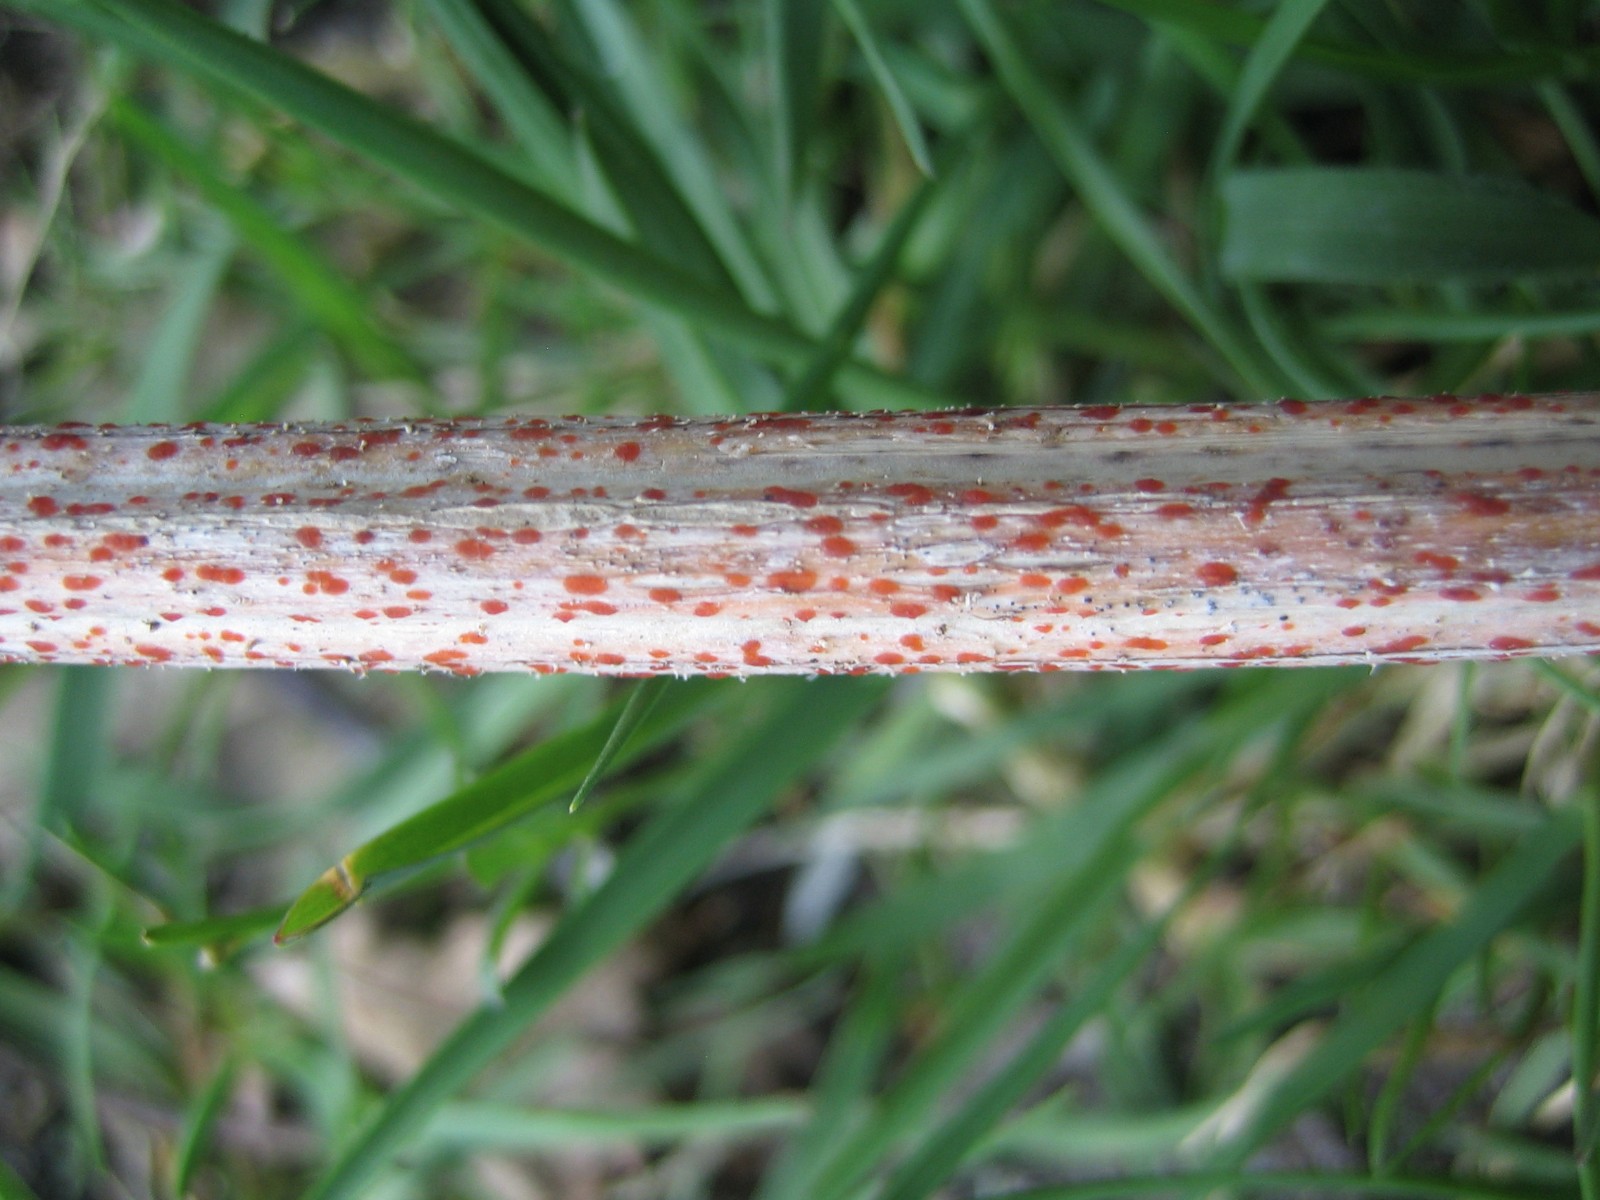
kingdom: Fungi
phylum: Ascomycota
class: Leotiomycetes
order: Helotiales
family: Calloriaceae
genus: Calloria
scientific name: Calloria urticae
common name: nælde-orangeskive
